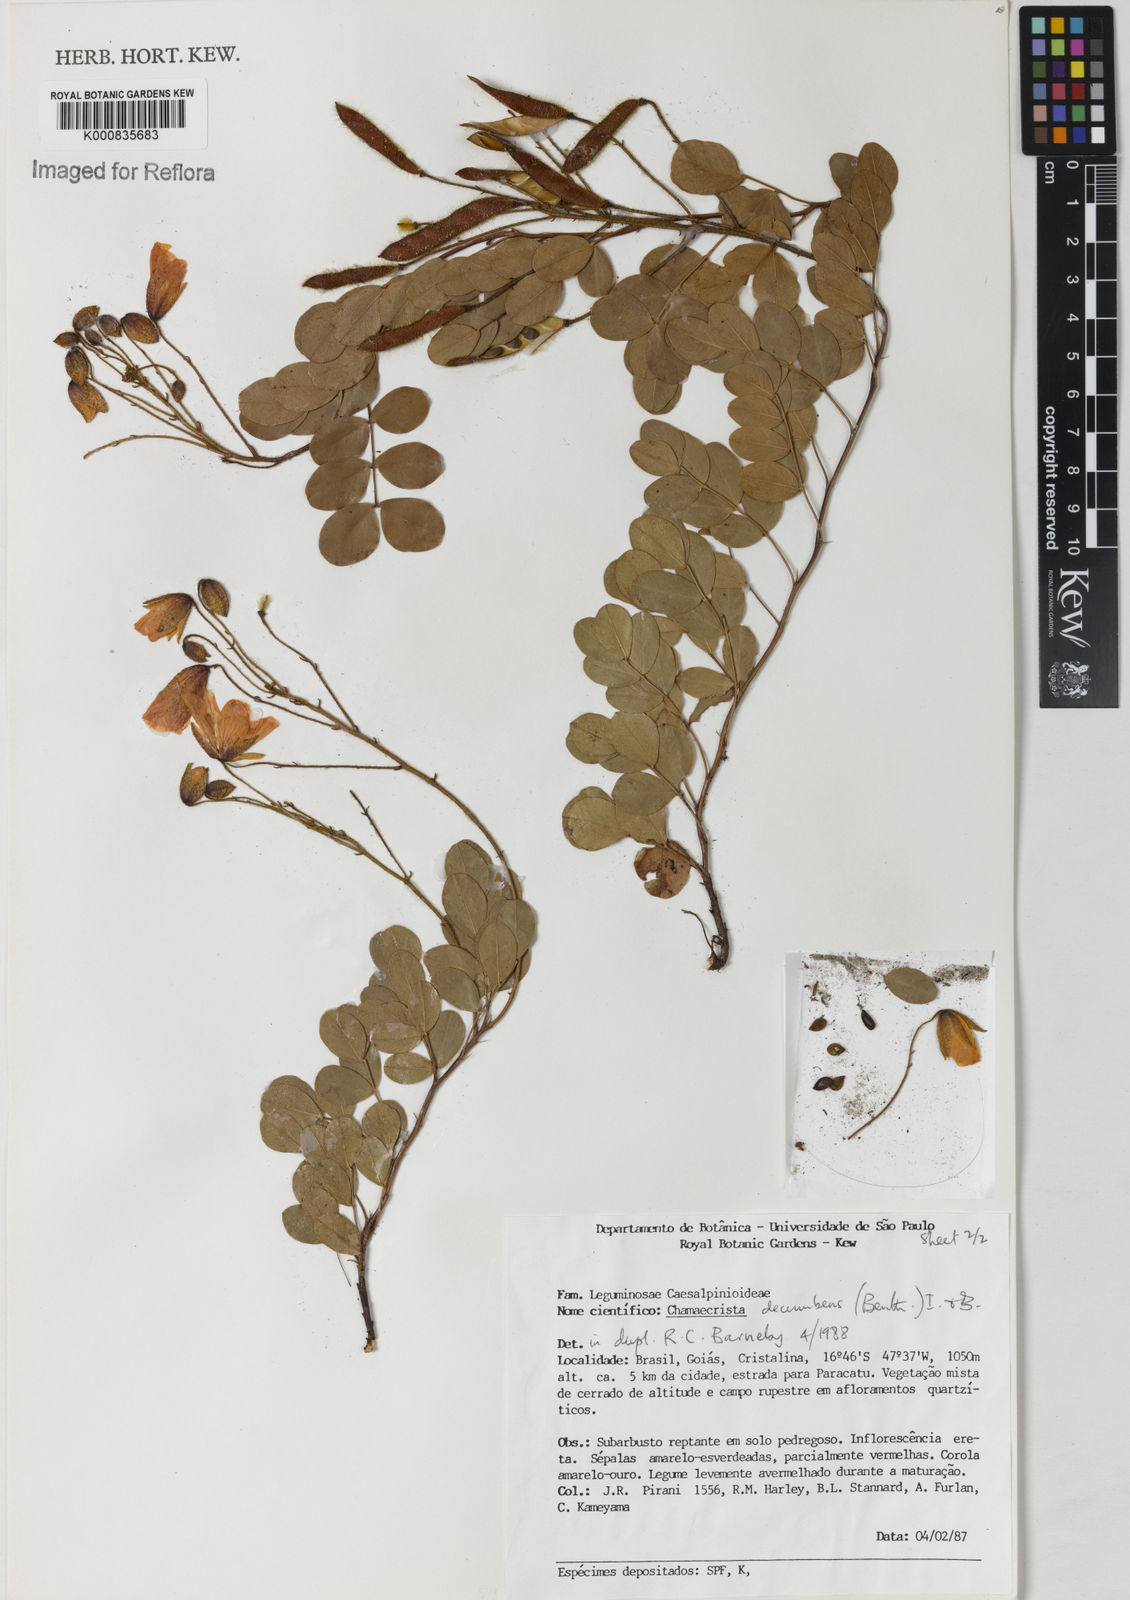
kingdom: Plantae
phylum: Tracheophyta
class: Magnoliopsida
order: Fabales
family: Fabaceae
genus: Chamaecrista
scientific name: Chamaecrista decumbens
